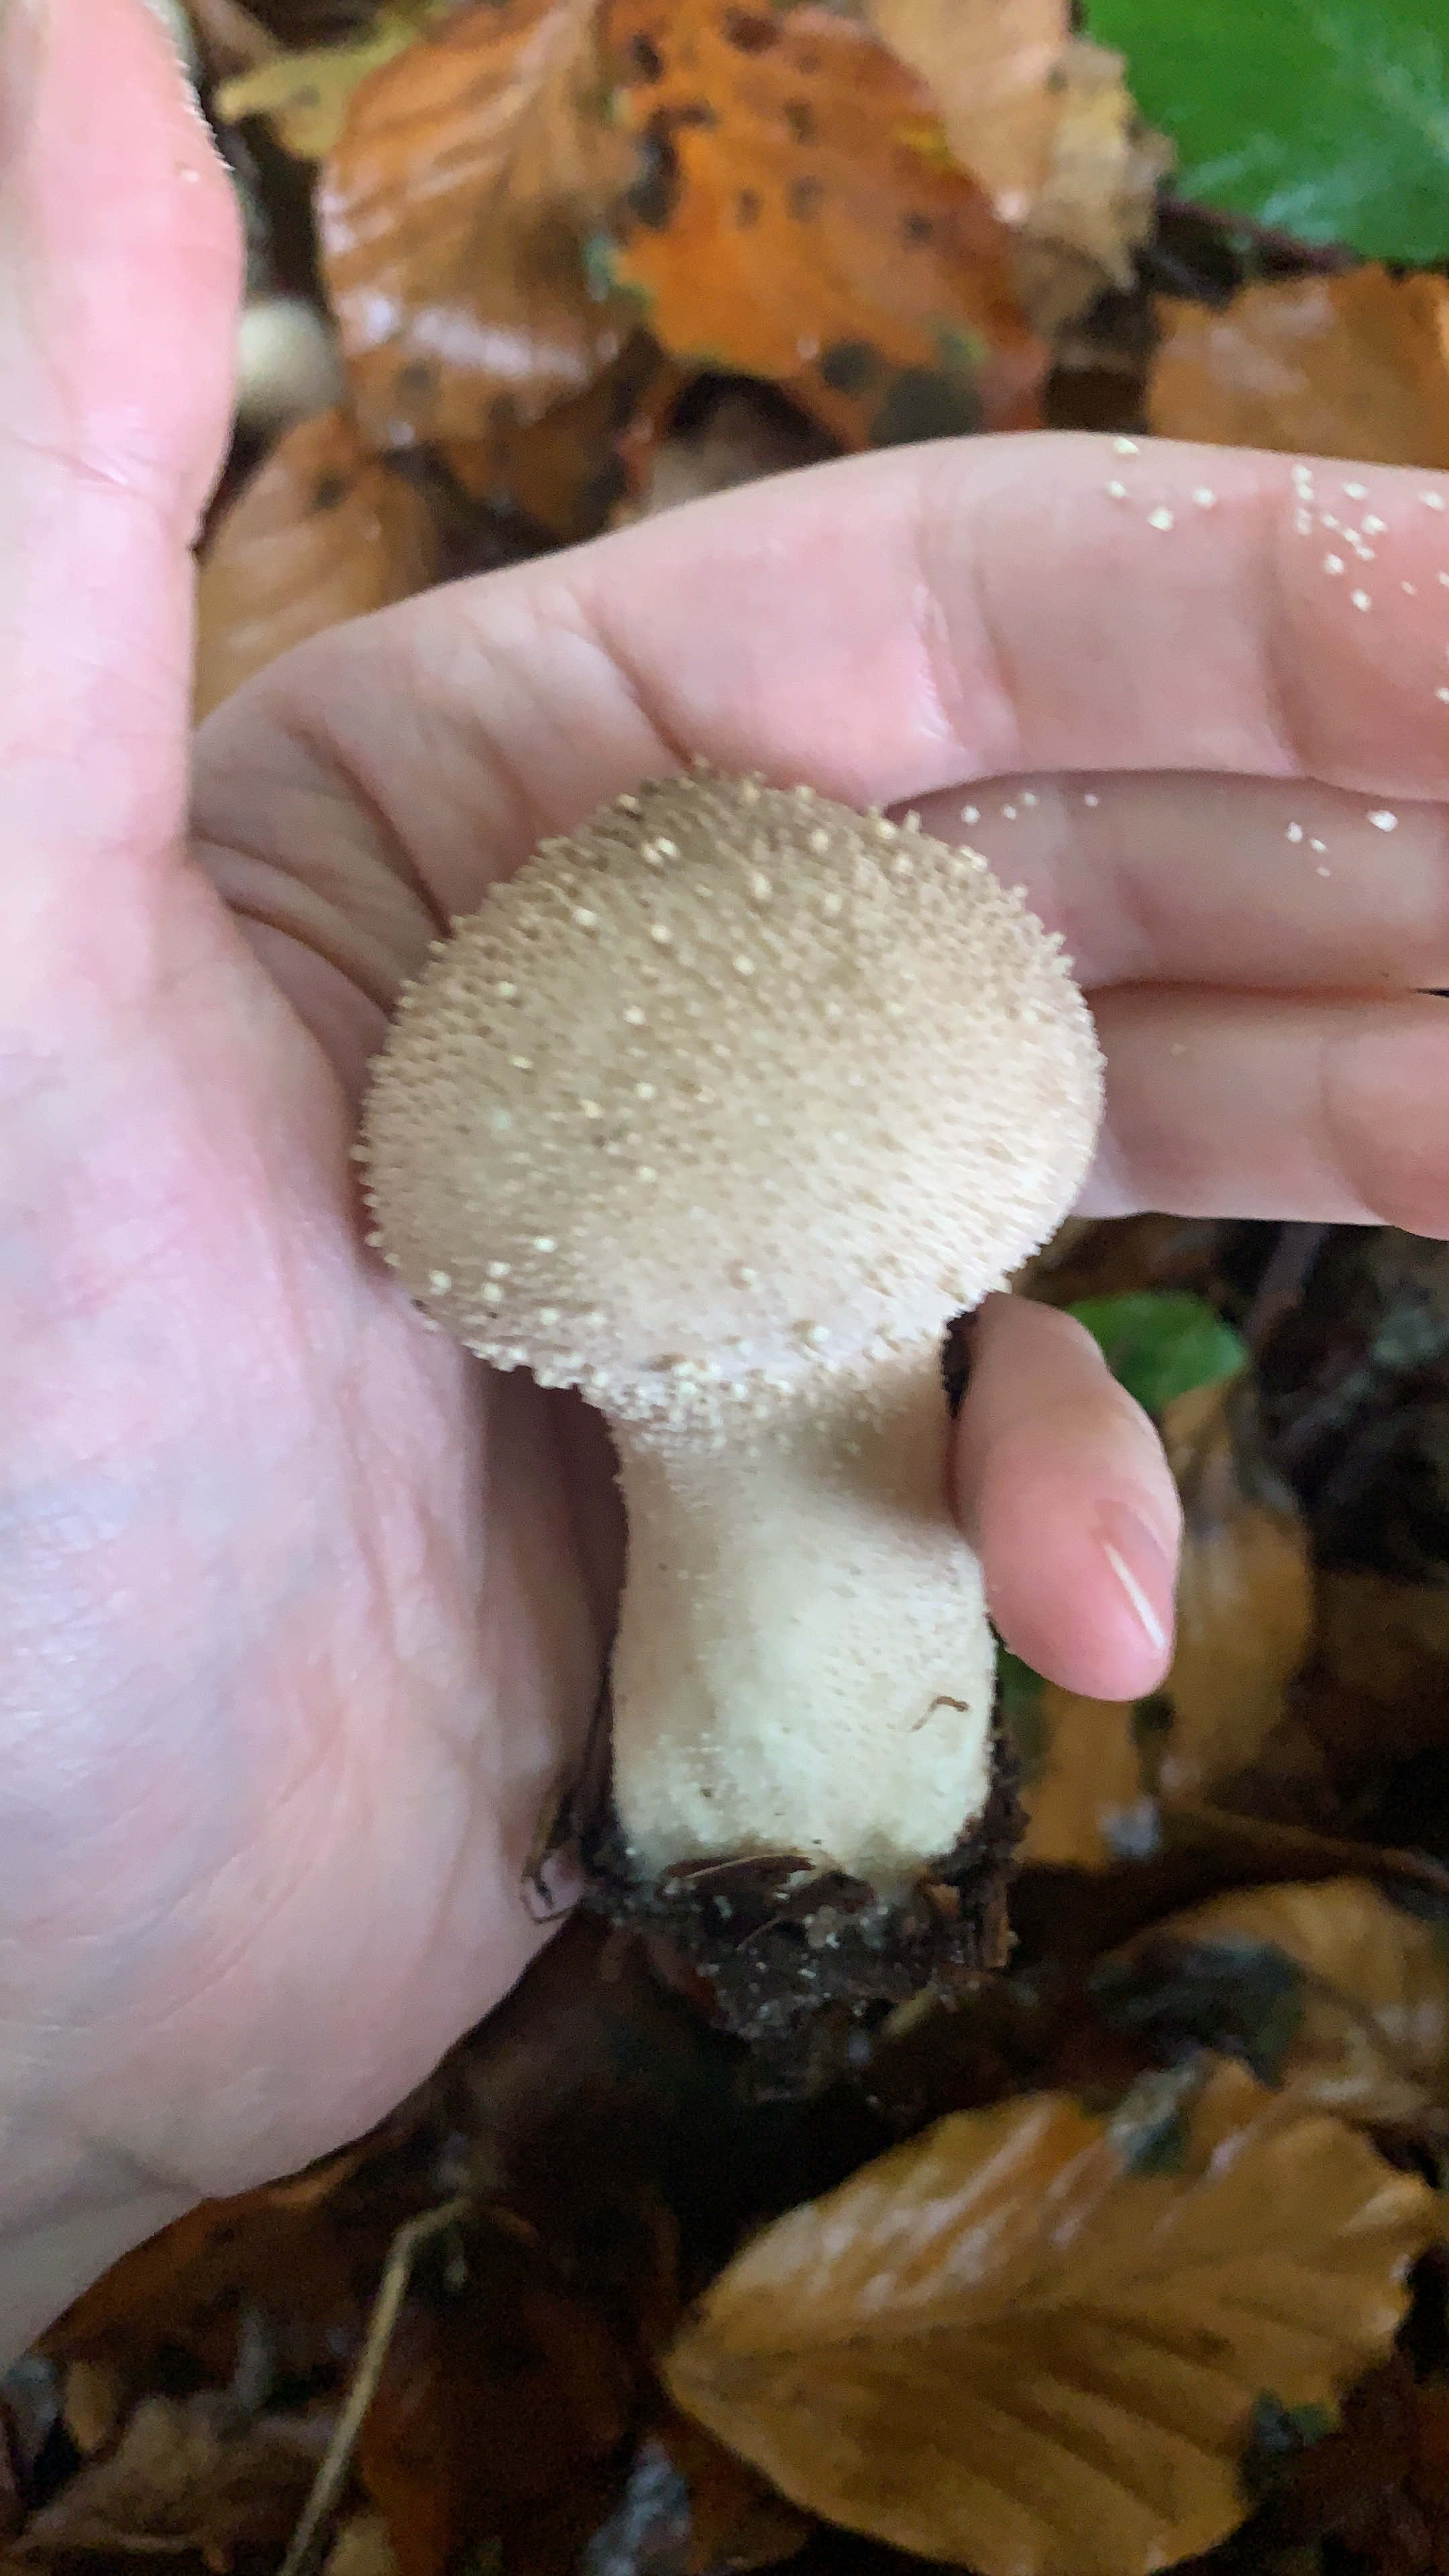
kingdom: Fungi
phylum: Basidiomycota
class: Agaricomycetes
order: Agaricales
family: Lycoperdaceae
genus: Lycoperdon
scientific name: Lycoperdon perlatum
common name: krystal-støvbold
